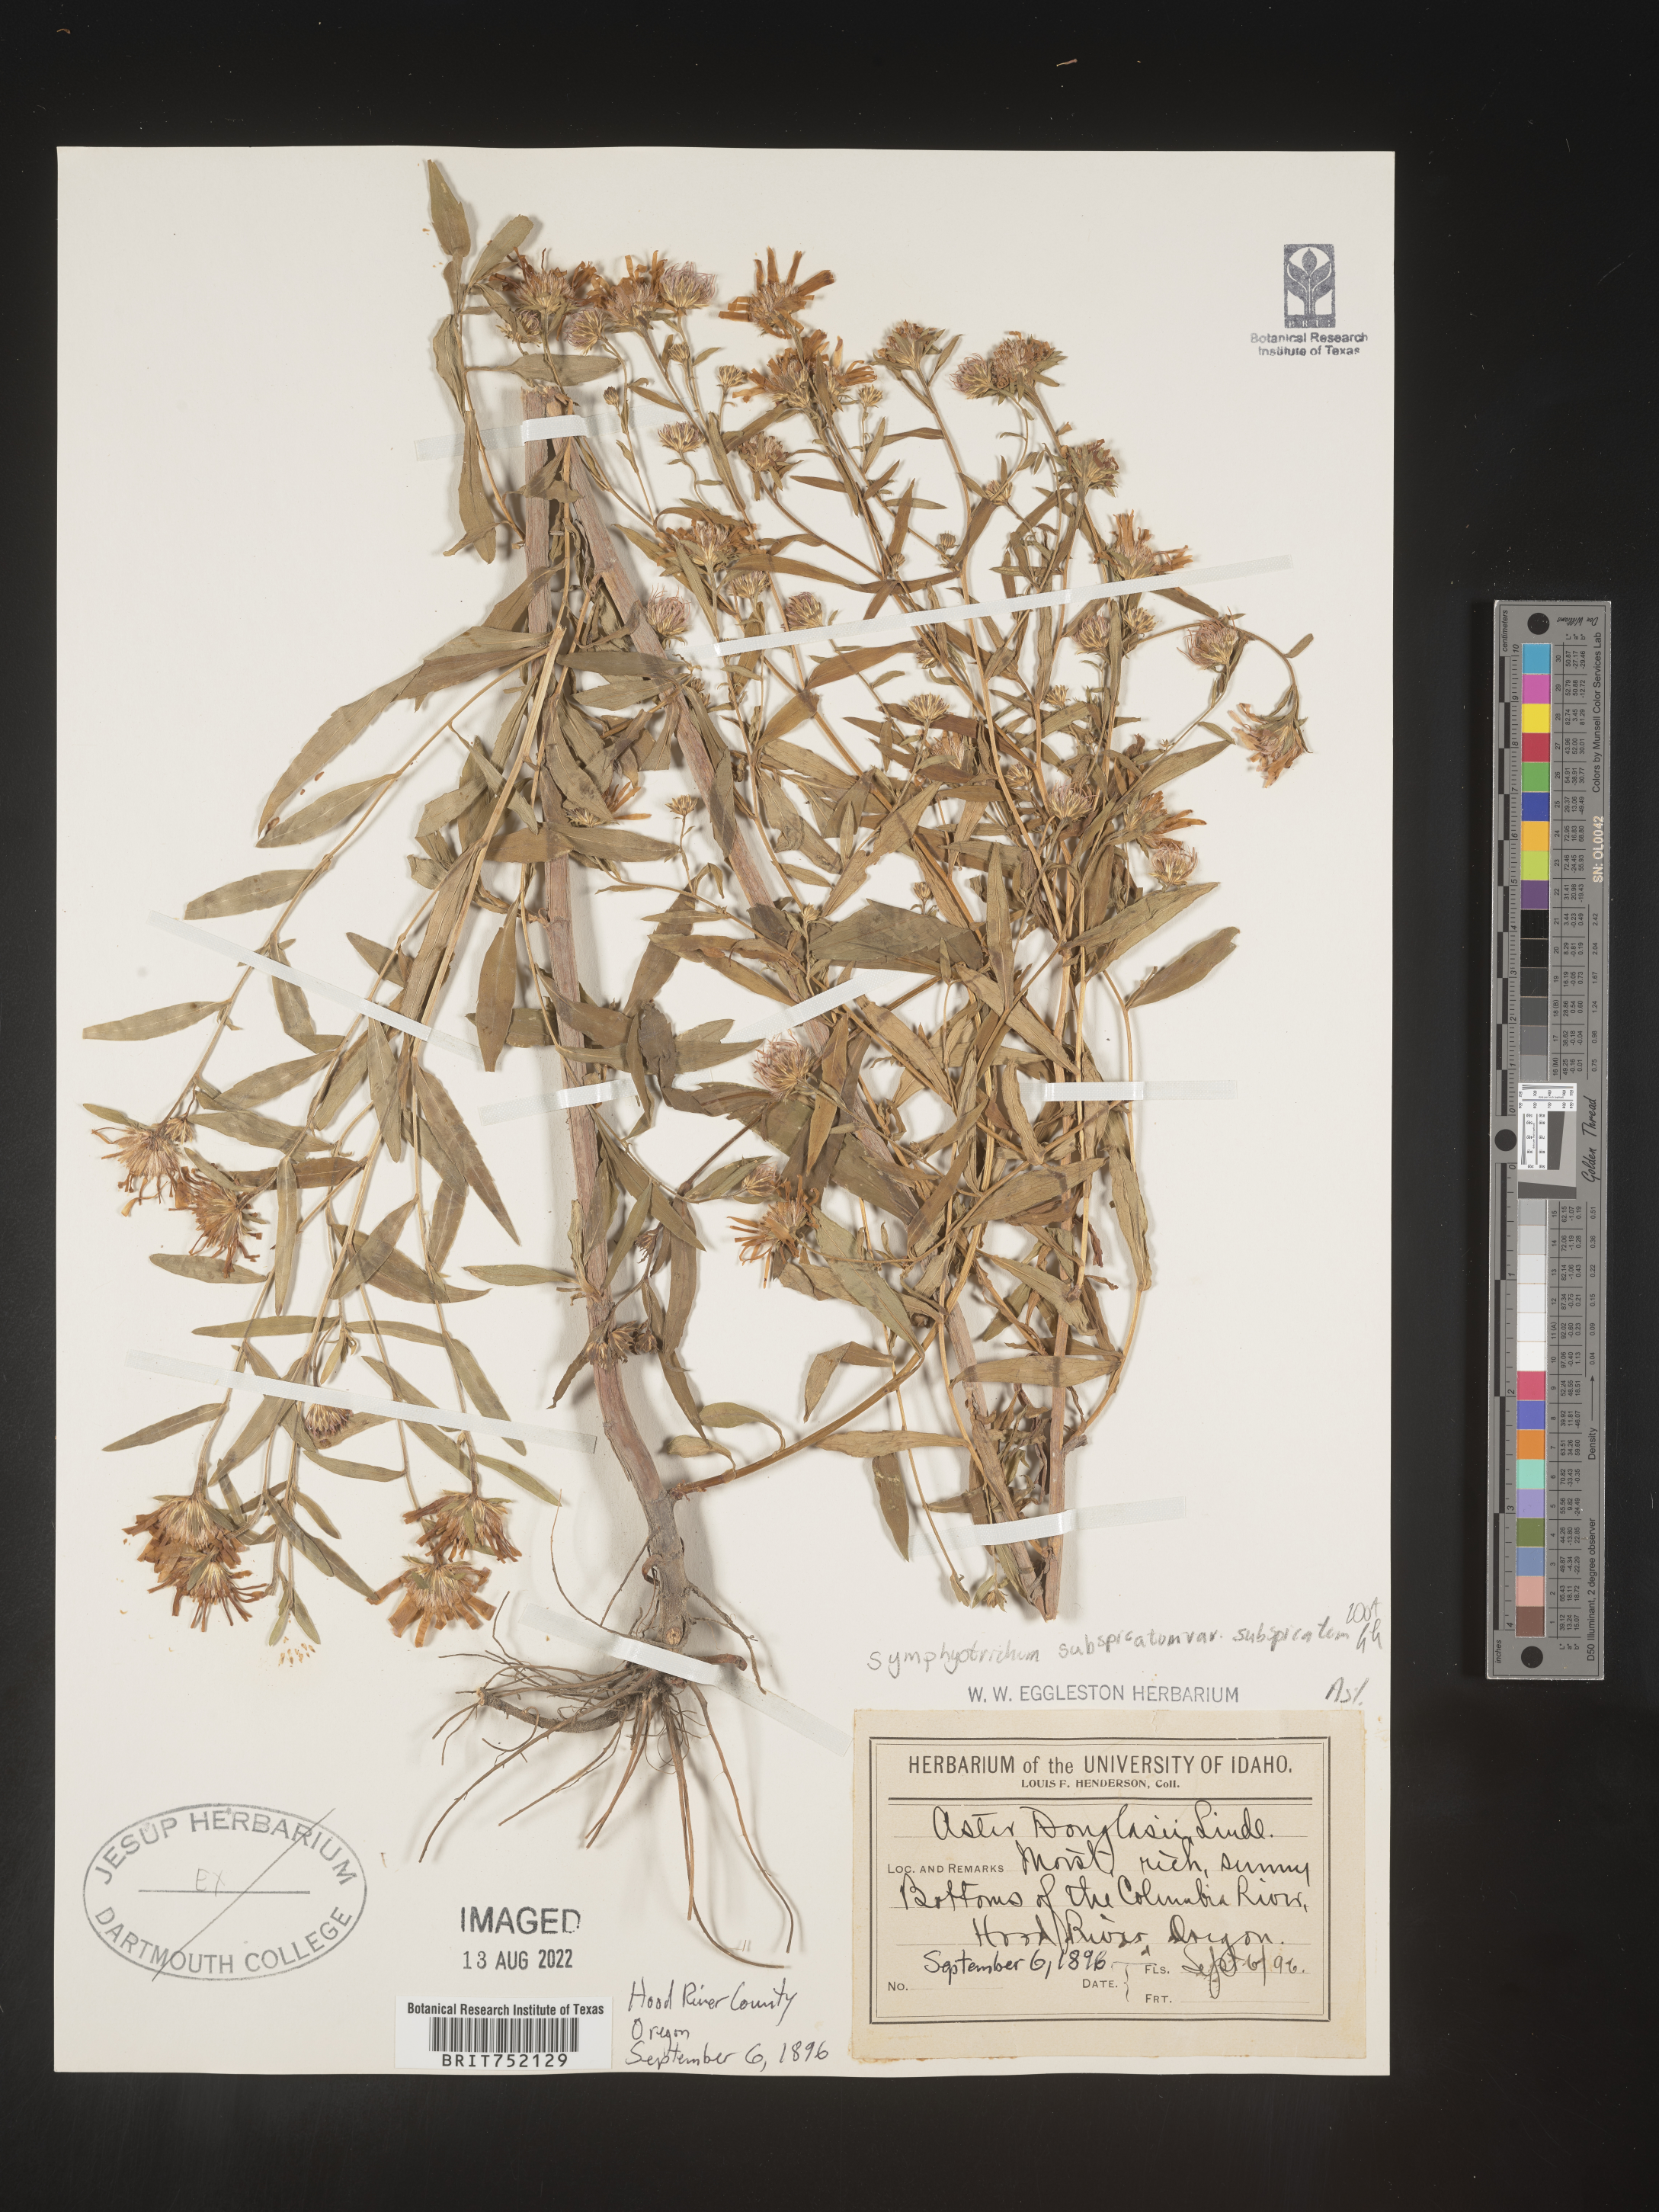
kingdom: Plantae
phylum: Tracheophyta
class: Magnoliopsida
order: Asterales
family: Asteraceae
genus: Symphyotrichum
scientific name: Symphyotrichum subspicatum
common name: Douglas' aster
